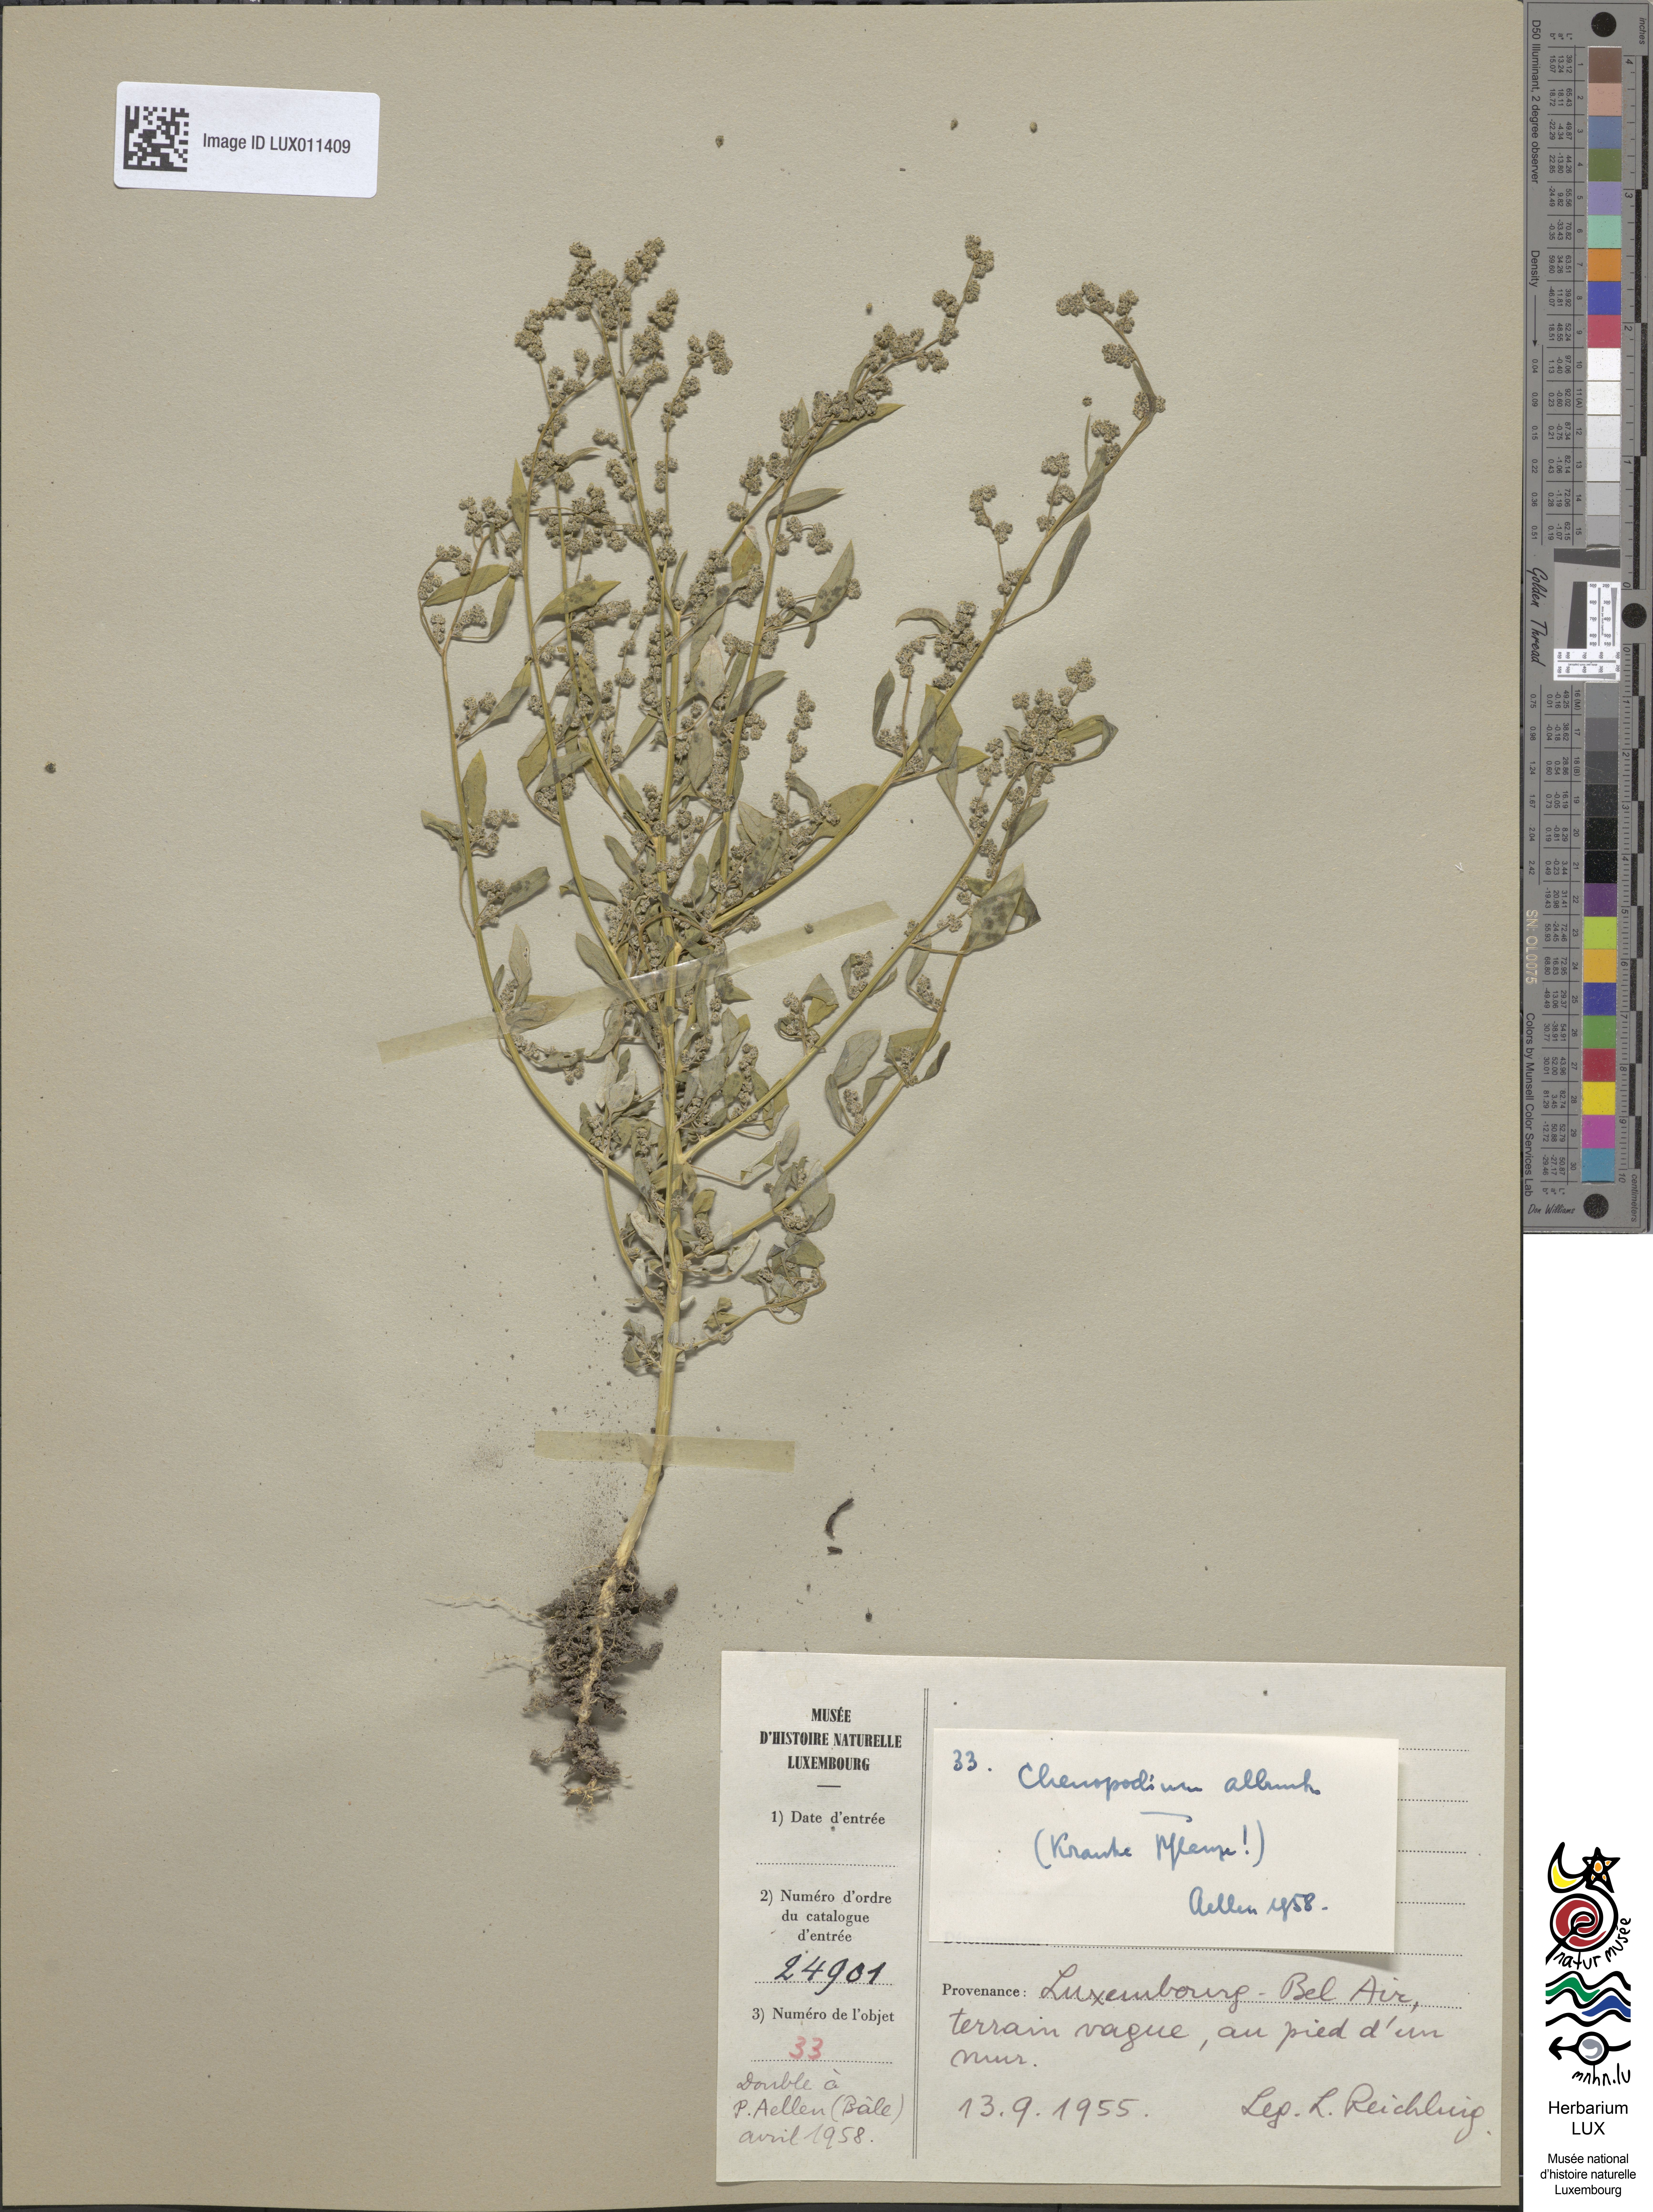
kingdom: Plantae
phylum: Tracheophyta
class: Magnoliopsida
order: Caryophyllales
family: Amaranthaceae
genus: Chenopodium
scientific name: Chenopodium album
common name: Fat-hen
